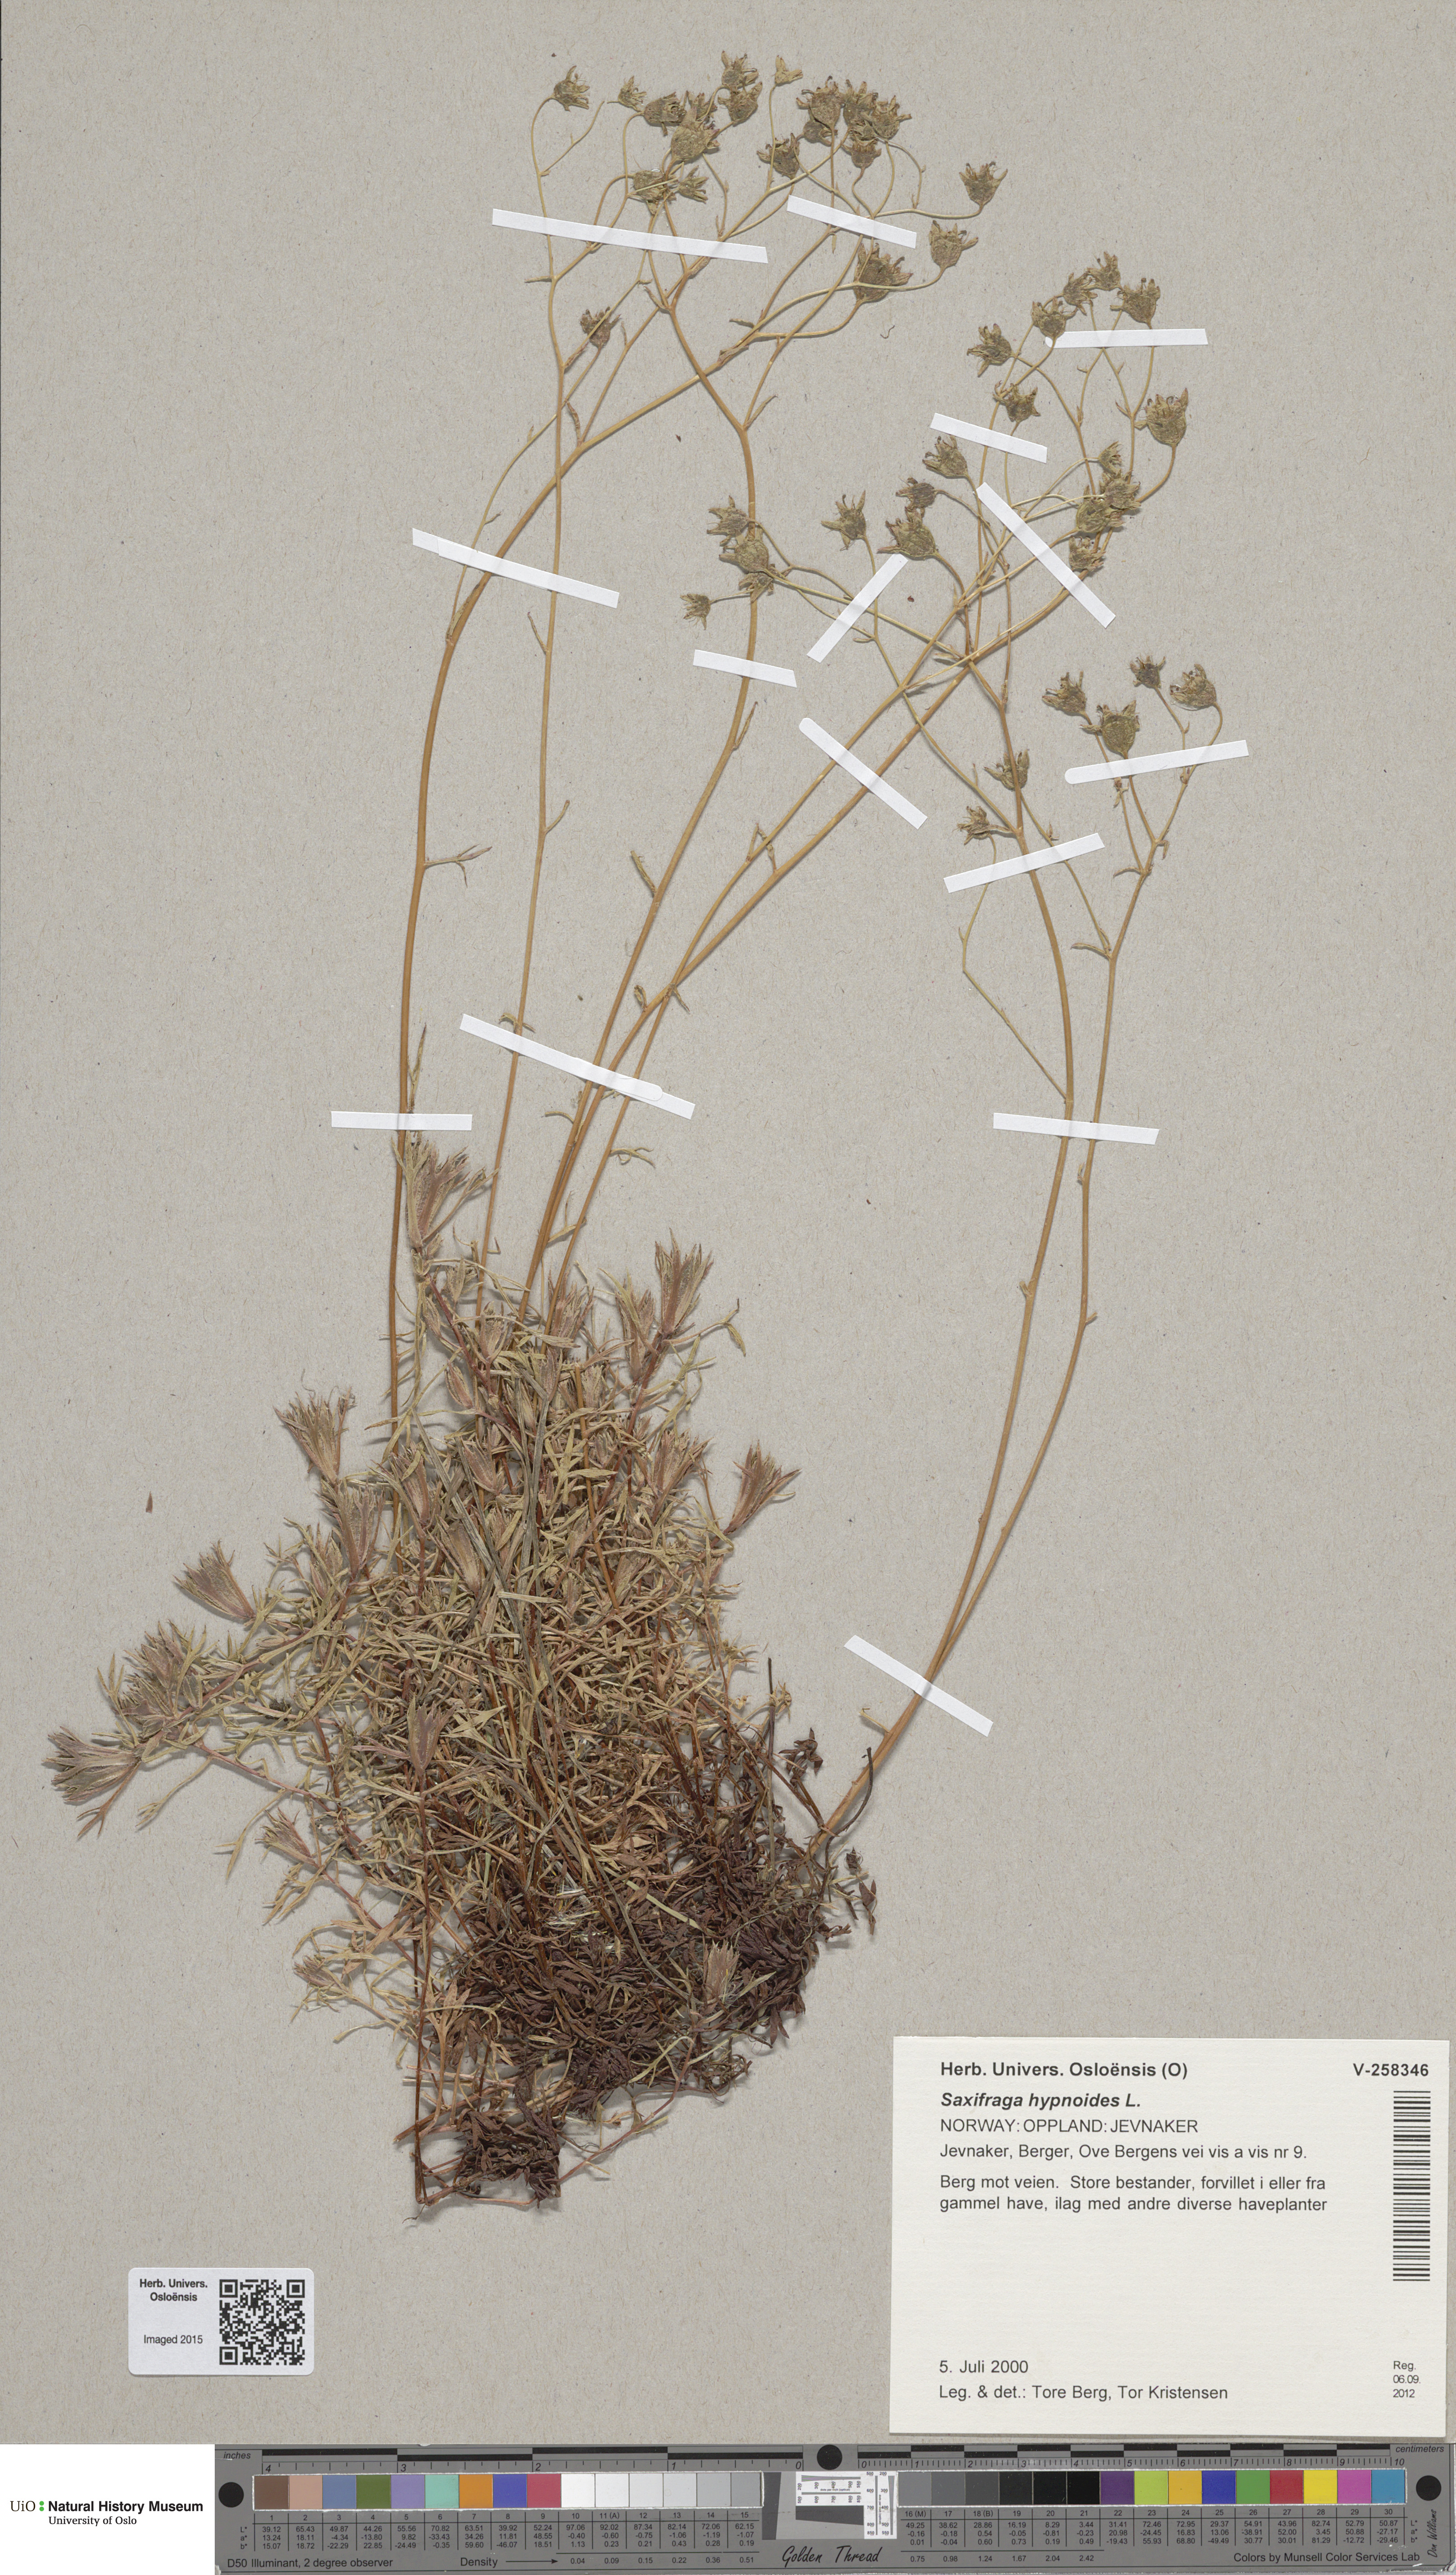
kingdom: Plantae
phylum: Tracheophyta
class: Magnoliopsida
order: Saxifragales
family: Saxifragaceae
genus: Saxifraga
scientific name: Saxifraga hypnoides
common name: Mossy saxifrage
